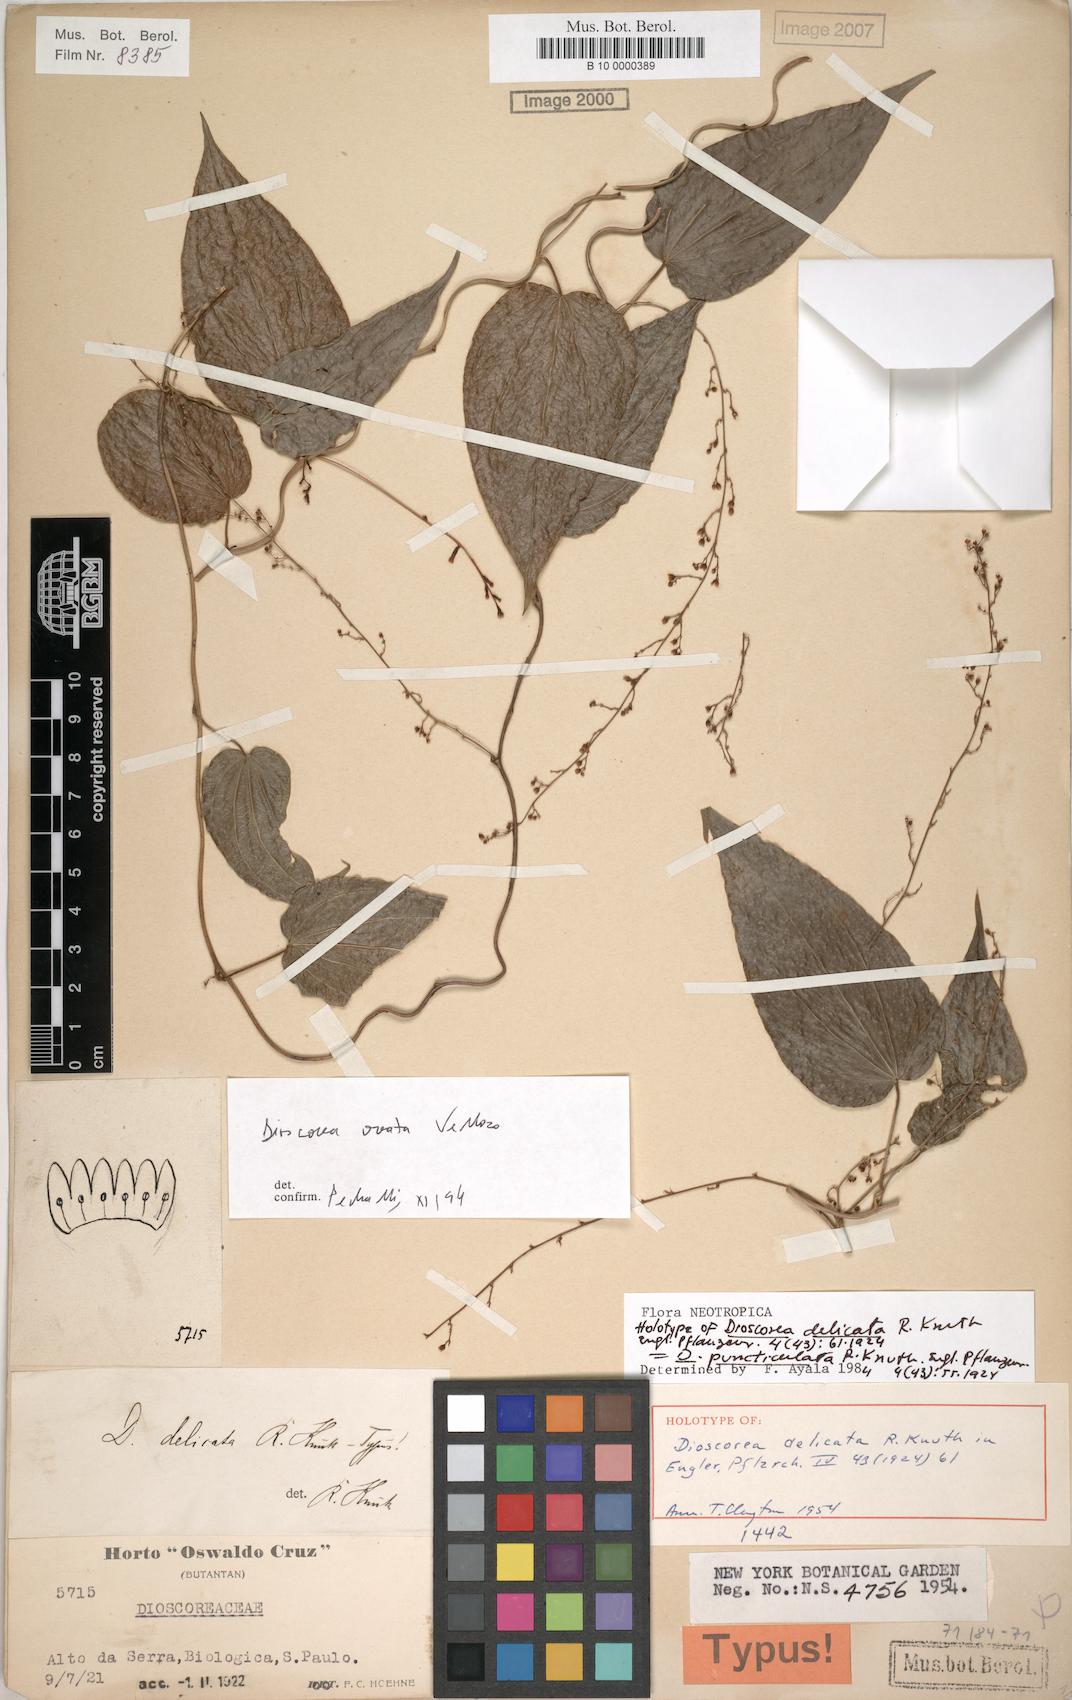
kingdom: Plantae
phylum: Tracheophyta
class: Liliopsida
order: Dioscoreales
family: Dioscoreaceae
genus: Dioscorea
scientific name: Dioscorea delicata
